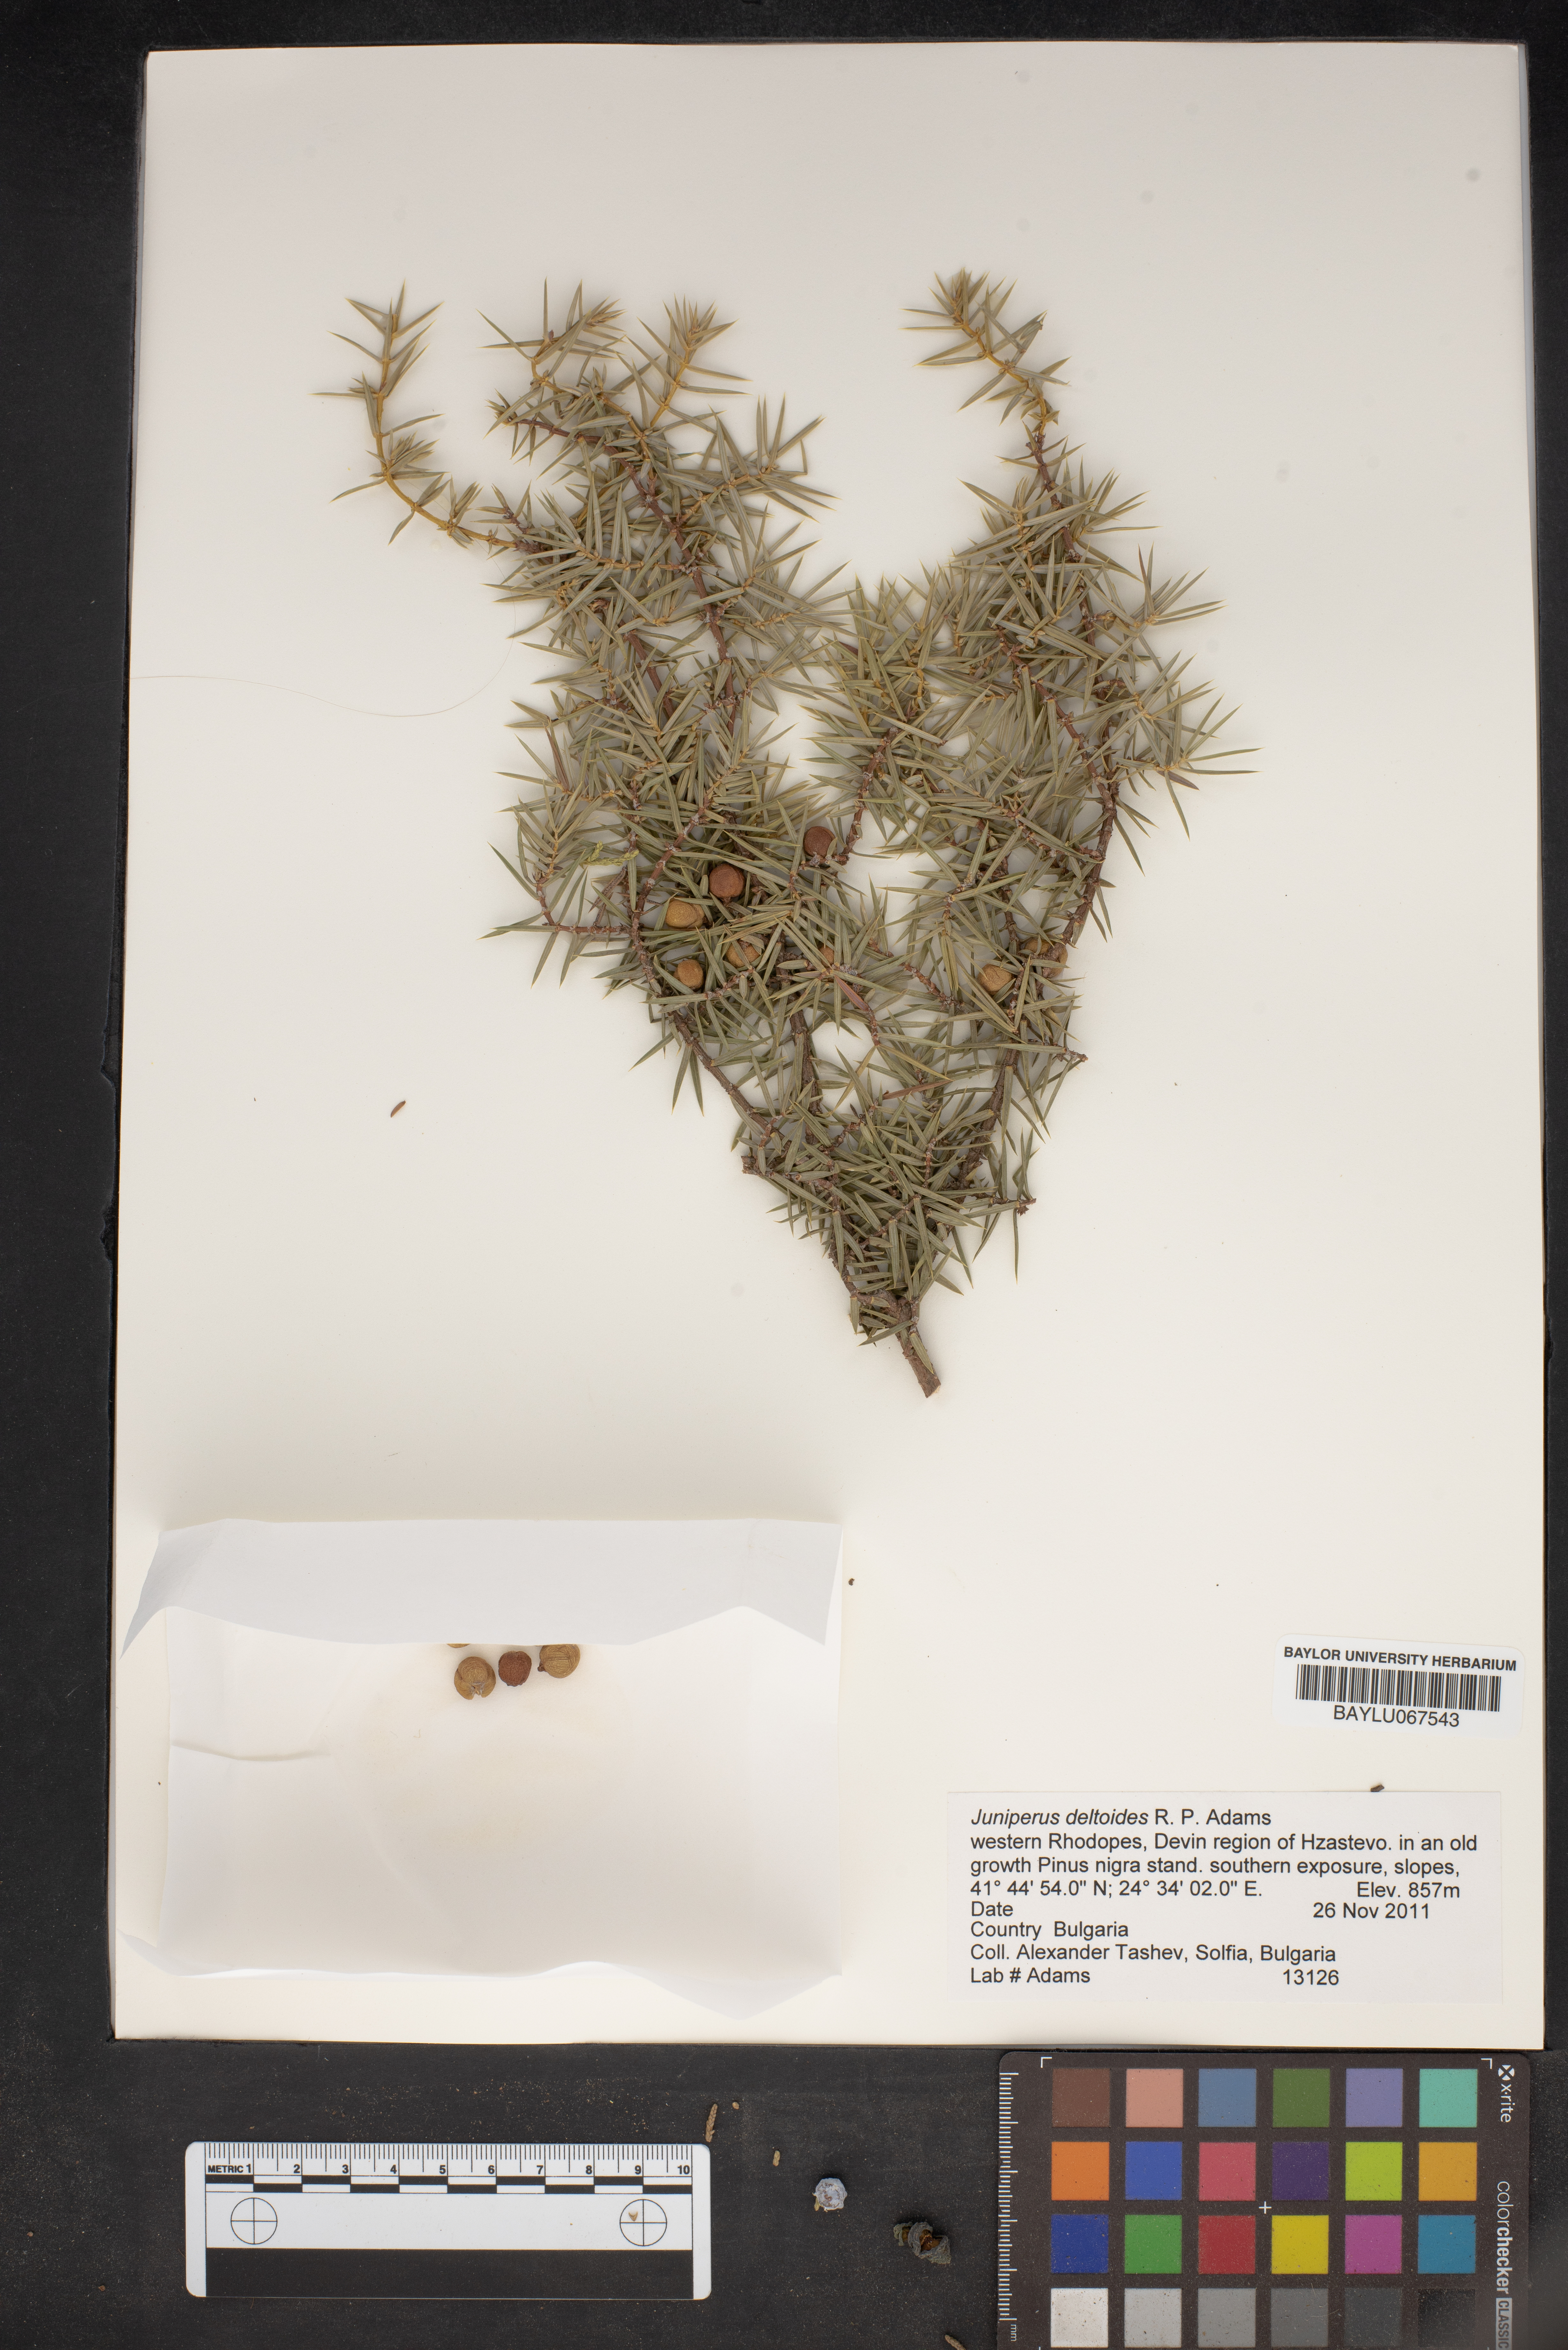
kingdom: Plantae
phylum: Tracheophyta
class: Pinopsida
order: Pinales
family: Cupressaceae
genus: Juniperus
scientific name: Juniperus oxycedrus
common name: Prickly juniper
